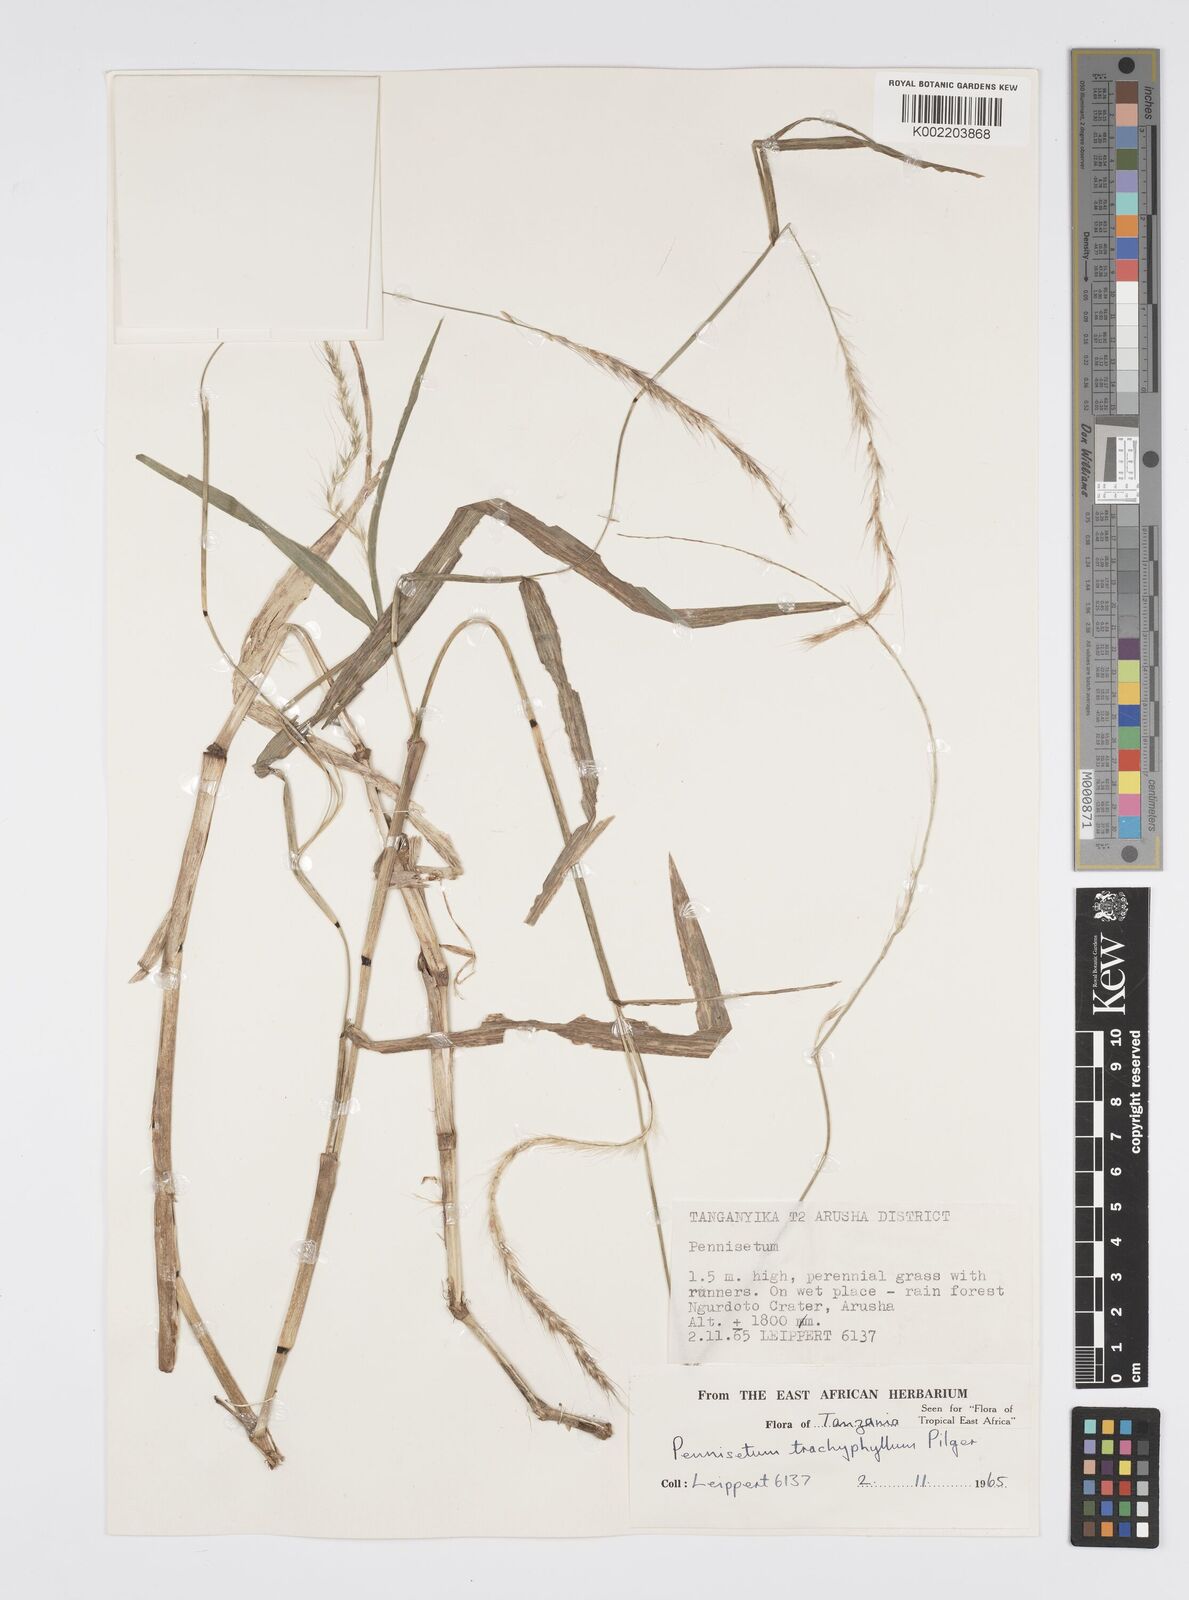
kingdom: Plantae
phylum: Tracheophyta
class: Liliopsida
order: Poales
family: Poaceae
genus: Cenchrus
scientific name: Cenchrus trachyphyllus
